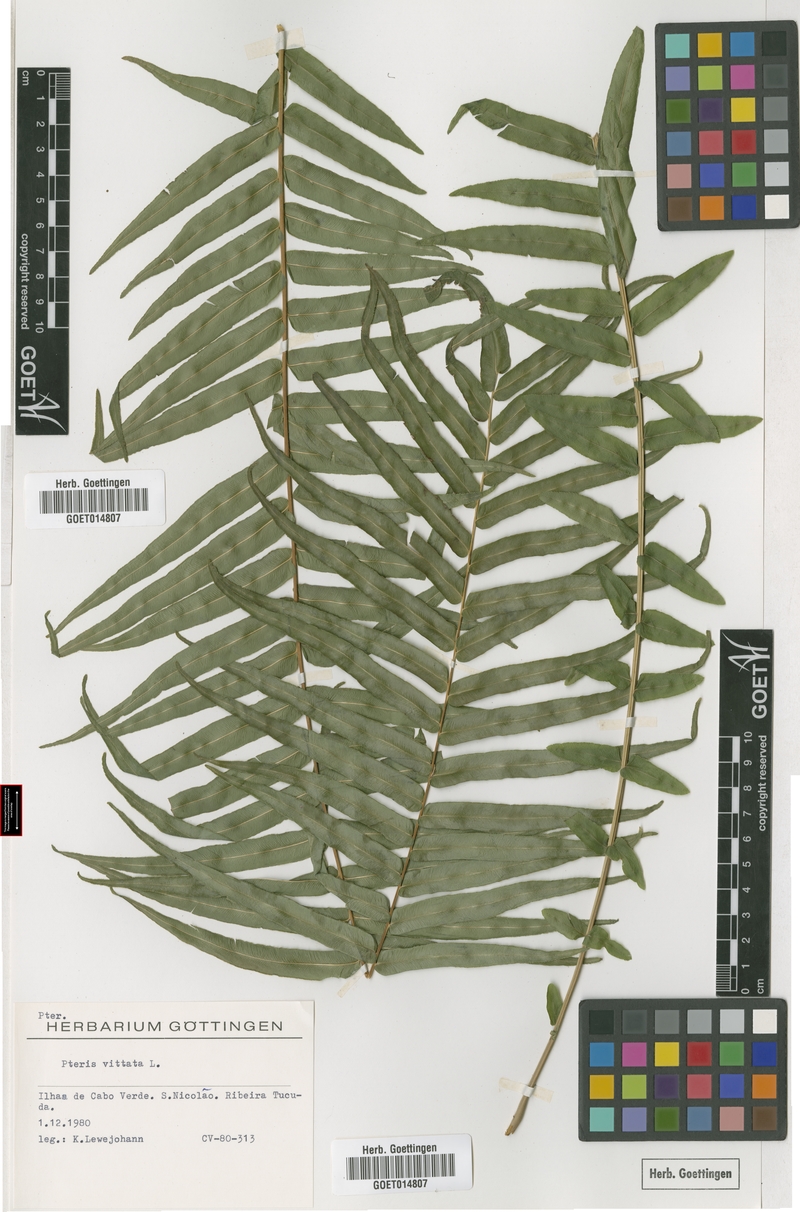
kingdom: Plantae
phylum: Tracheophyta
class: Polypodiopsida
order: Polypodiales
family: Pteridaceae
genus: Pteris
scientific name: Pteris vittata
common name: Ladder brake
